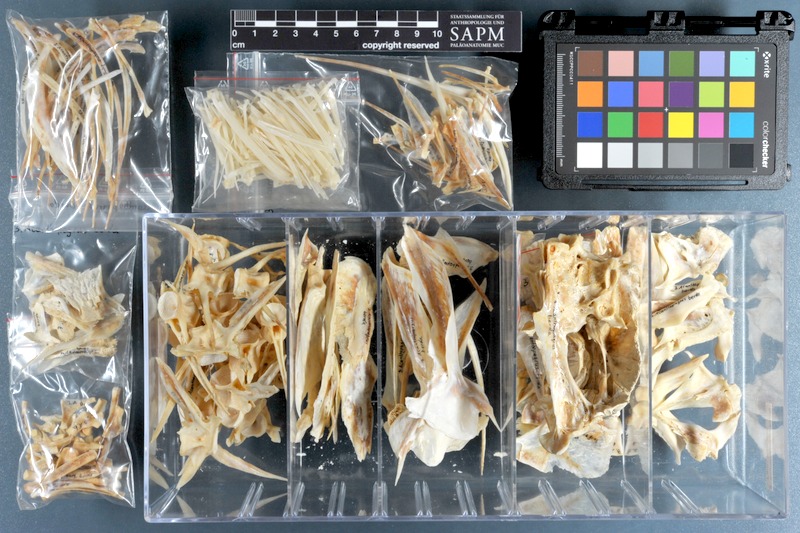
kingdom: Animalia
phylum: Chordata
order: Perciformes
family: Sparidae
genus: Acanthopagrus
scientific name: Acanthopagrus bifasciatus
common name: Twobar seabream
